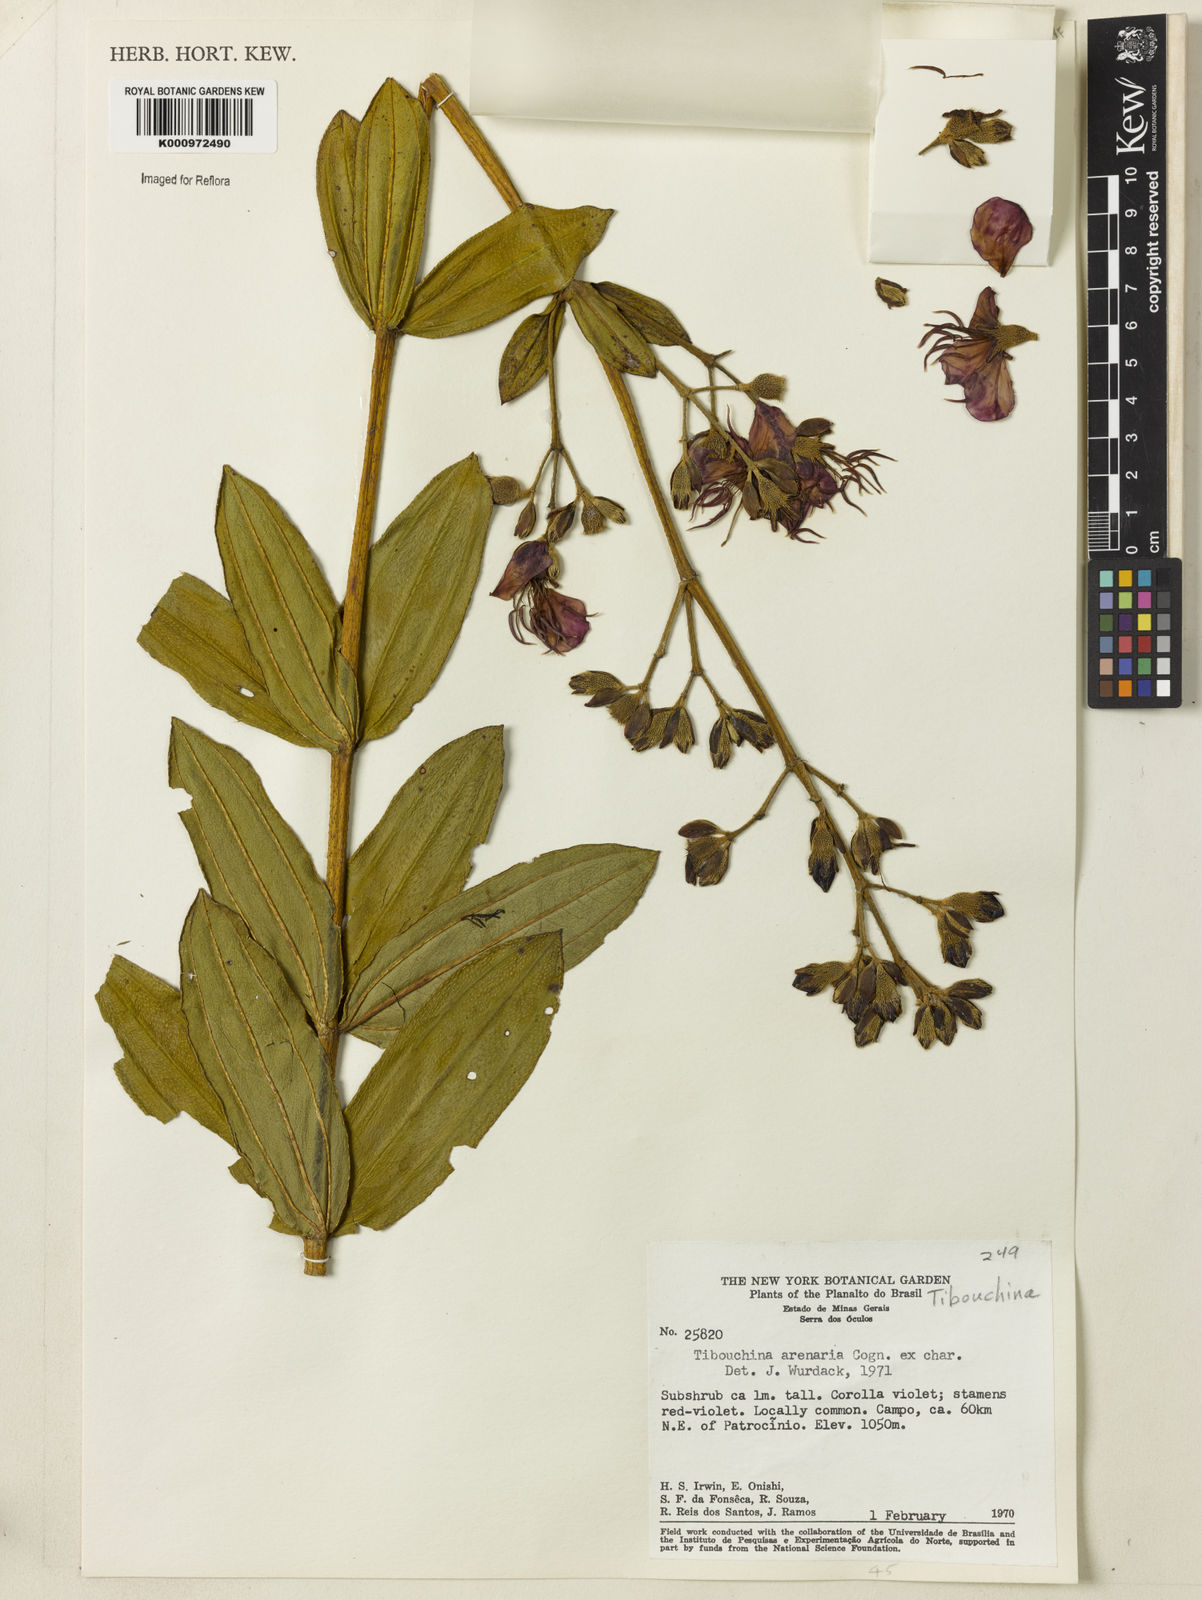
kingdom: Plantae
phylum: Tracheophyta
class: Magnoliopsida
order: Myrtales
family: Melastomataceae
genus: Pleroma
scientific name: Pleroma arenarium
